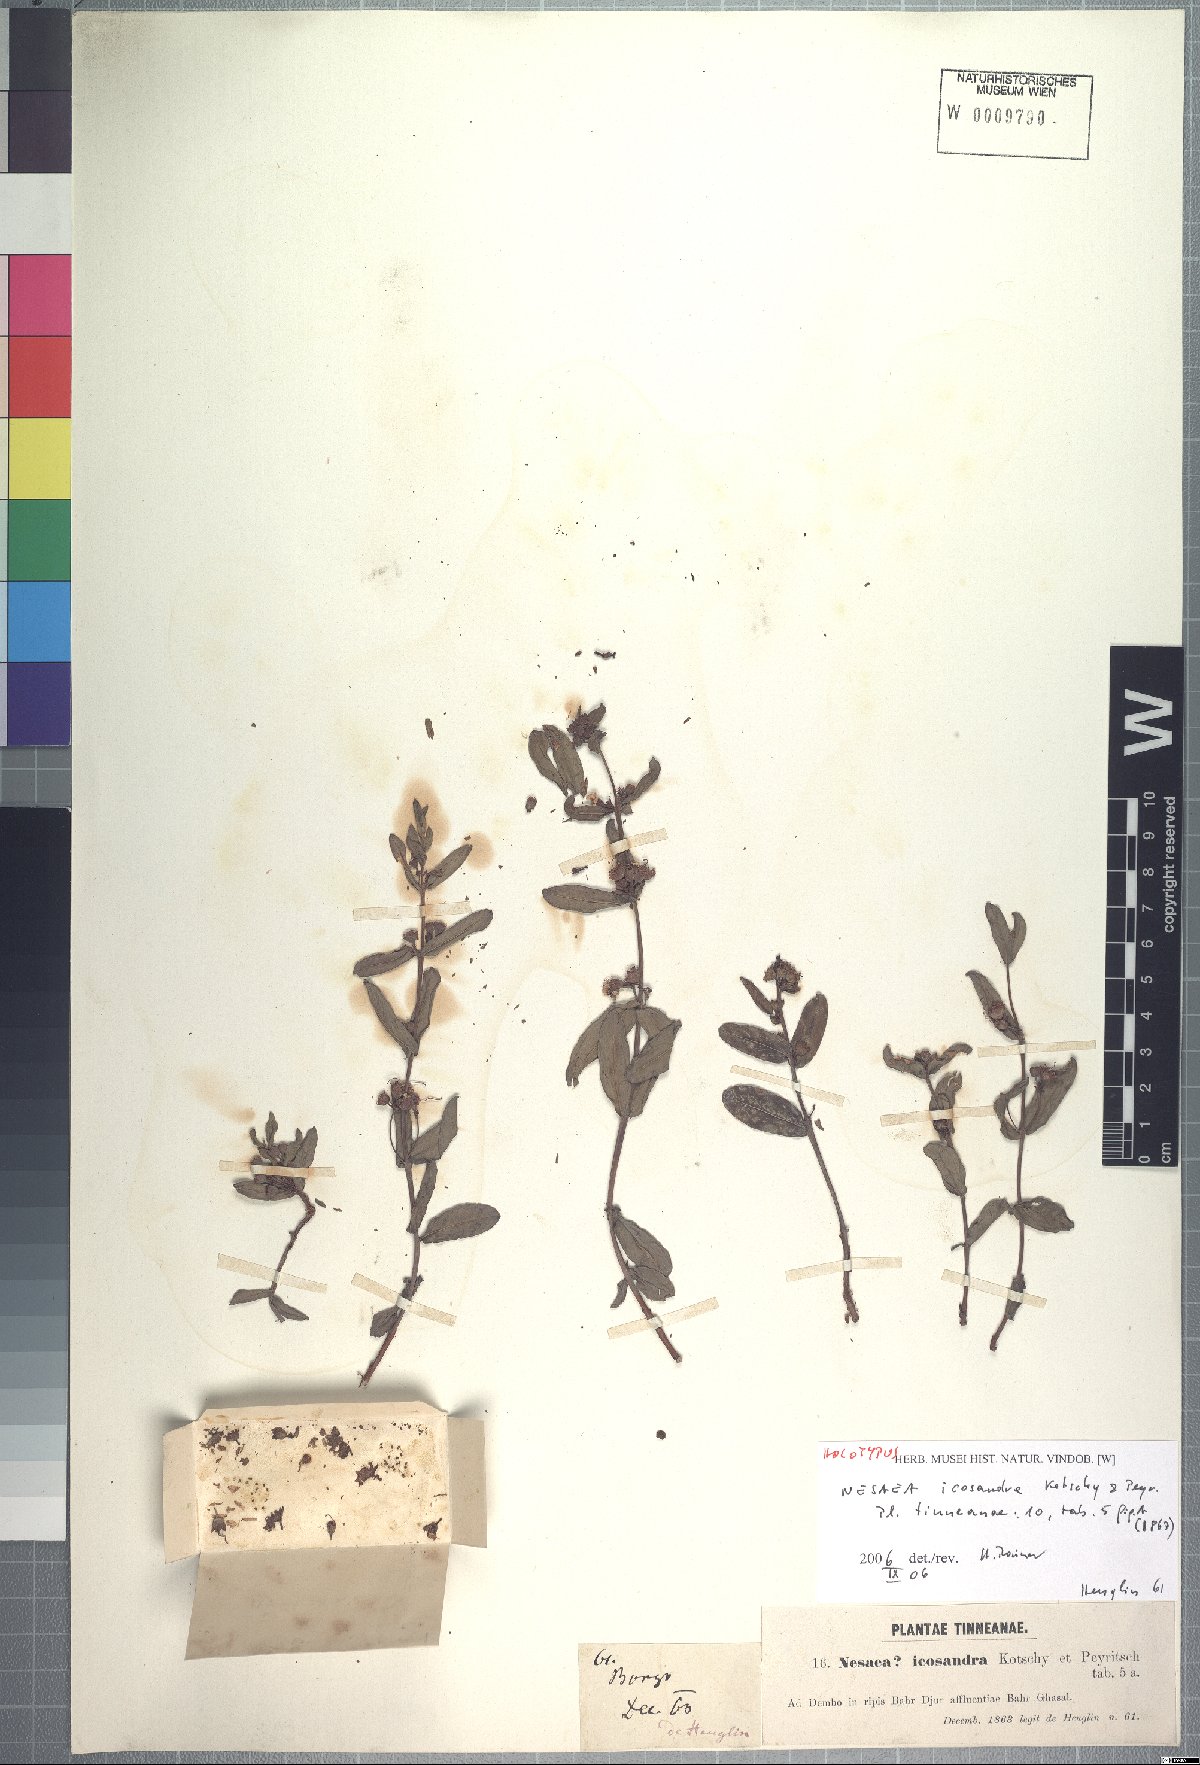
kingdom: Plantae
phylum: Tracheophyta
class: Magnoliopsida
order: Myrtales
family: Lythraceae
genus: Ammannia
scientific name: Ammannia icosandra
